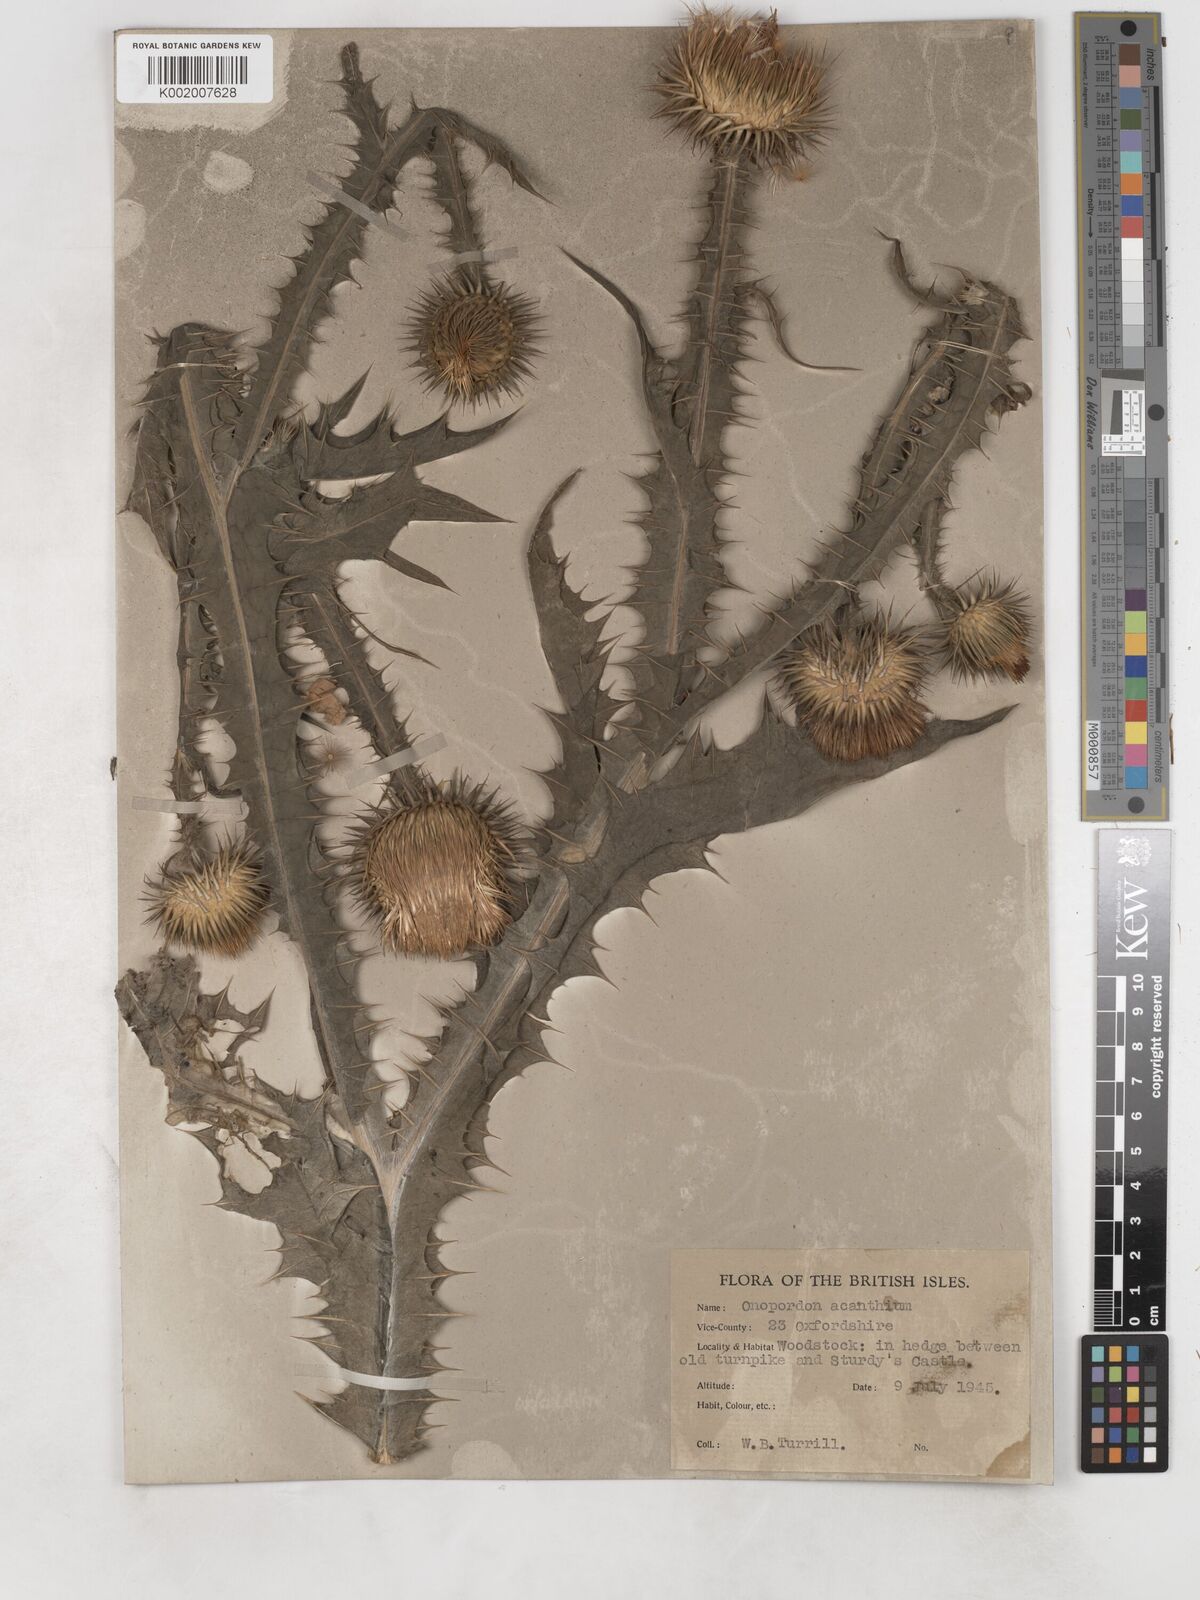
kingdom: Plantae
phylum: Tracheophyta
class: Magnoliopsida
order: Asterales
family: Asteraceae
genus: Onopordum
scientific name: Onopordum acanthium
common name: Scotch thistle
